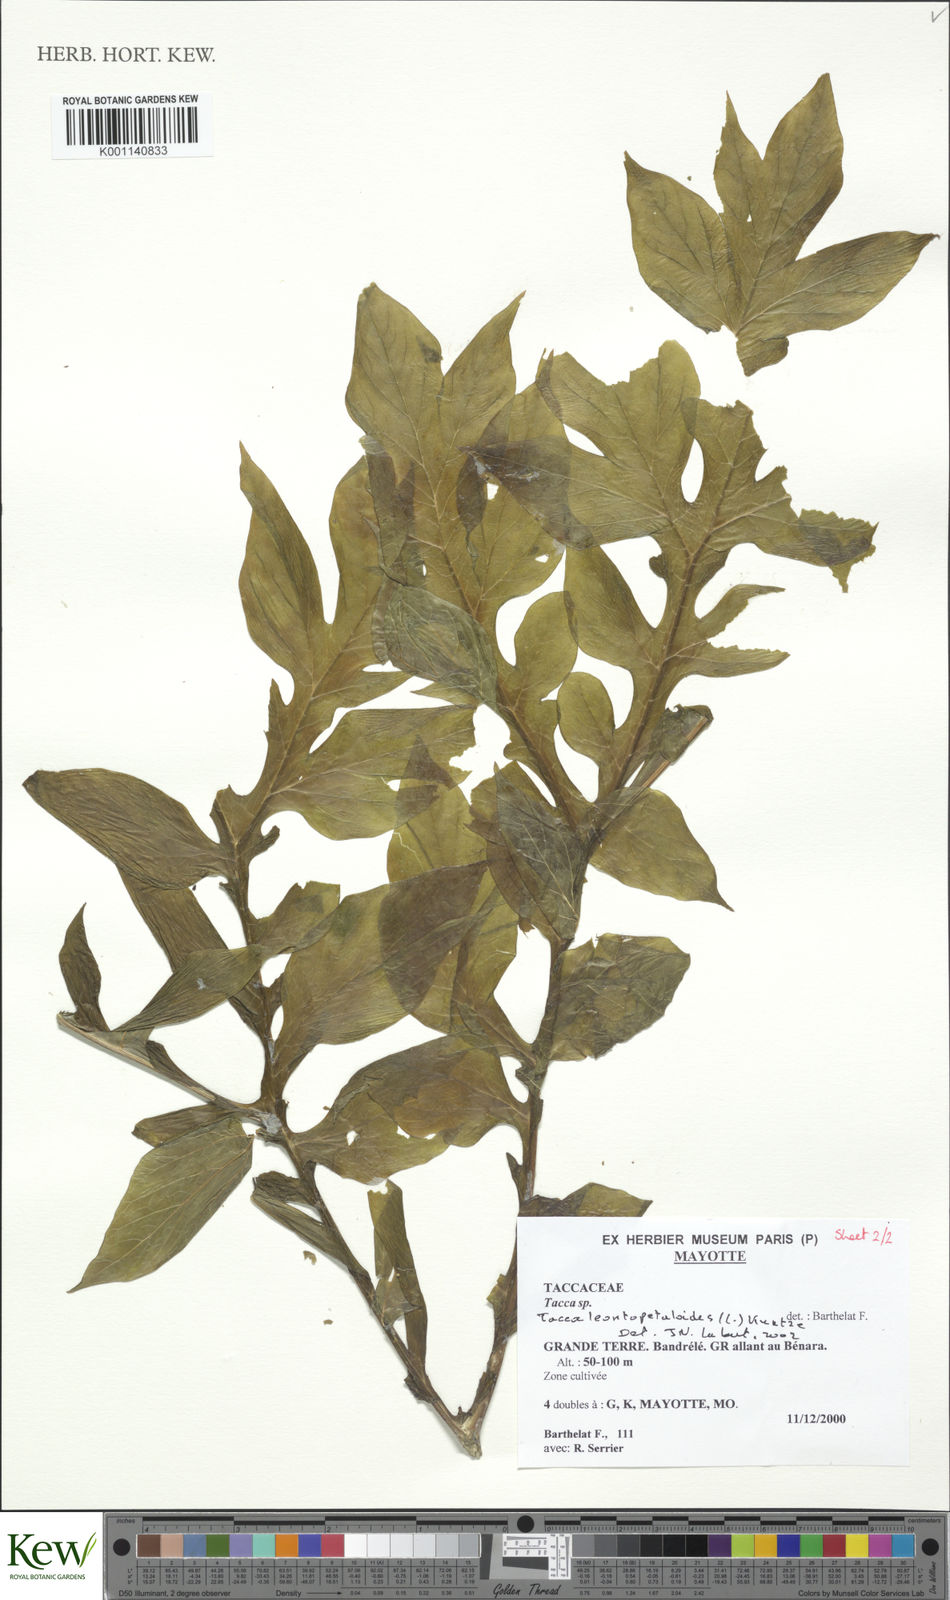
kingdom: Plantae
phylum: Tracheophyta
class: Liliopsida
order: Dioscoreales
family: Dioscoreaceae
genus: Tacca
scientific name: Tacca leontopetaloides
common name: Arrowroot
